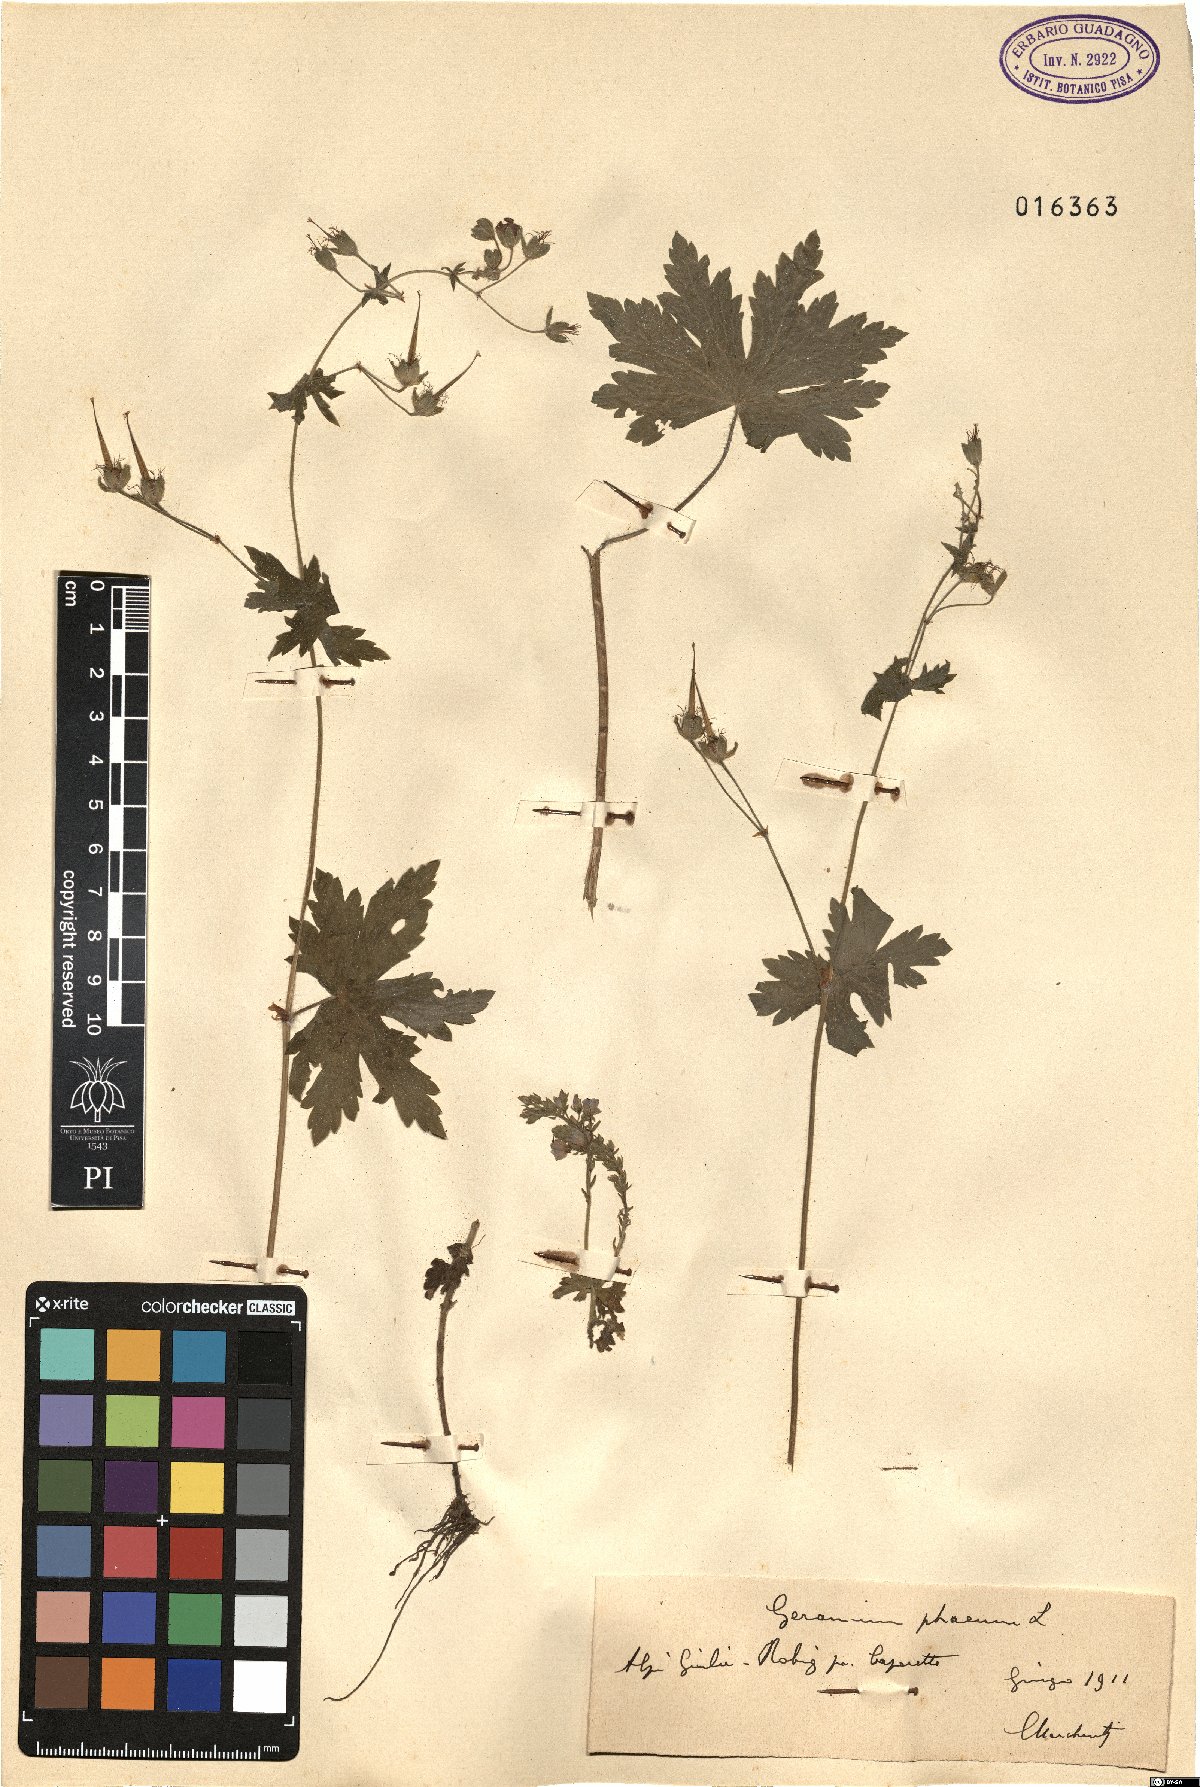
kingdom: Plantae
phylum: Tracheophyta
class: Magnoliopsida
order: Geraniales
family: Geraniaceae
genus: Geranium
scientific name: Geranium phaeum
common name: Dusky crane's-bill
